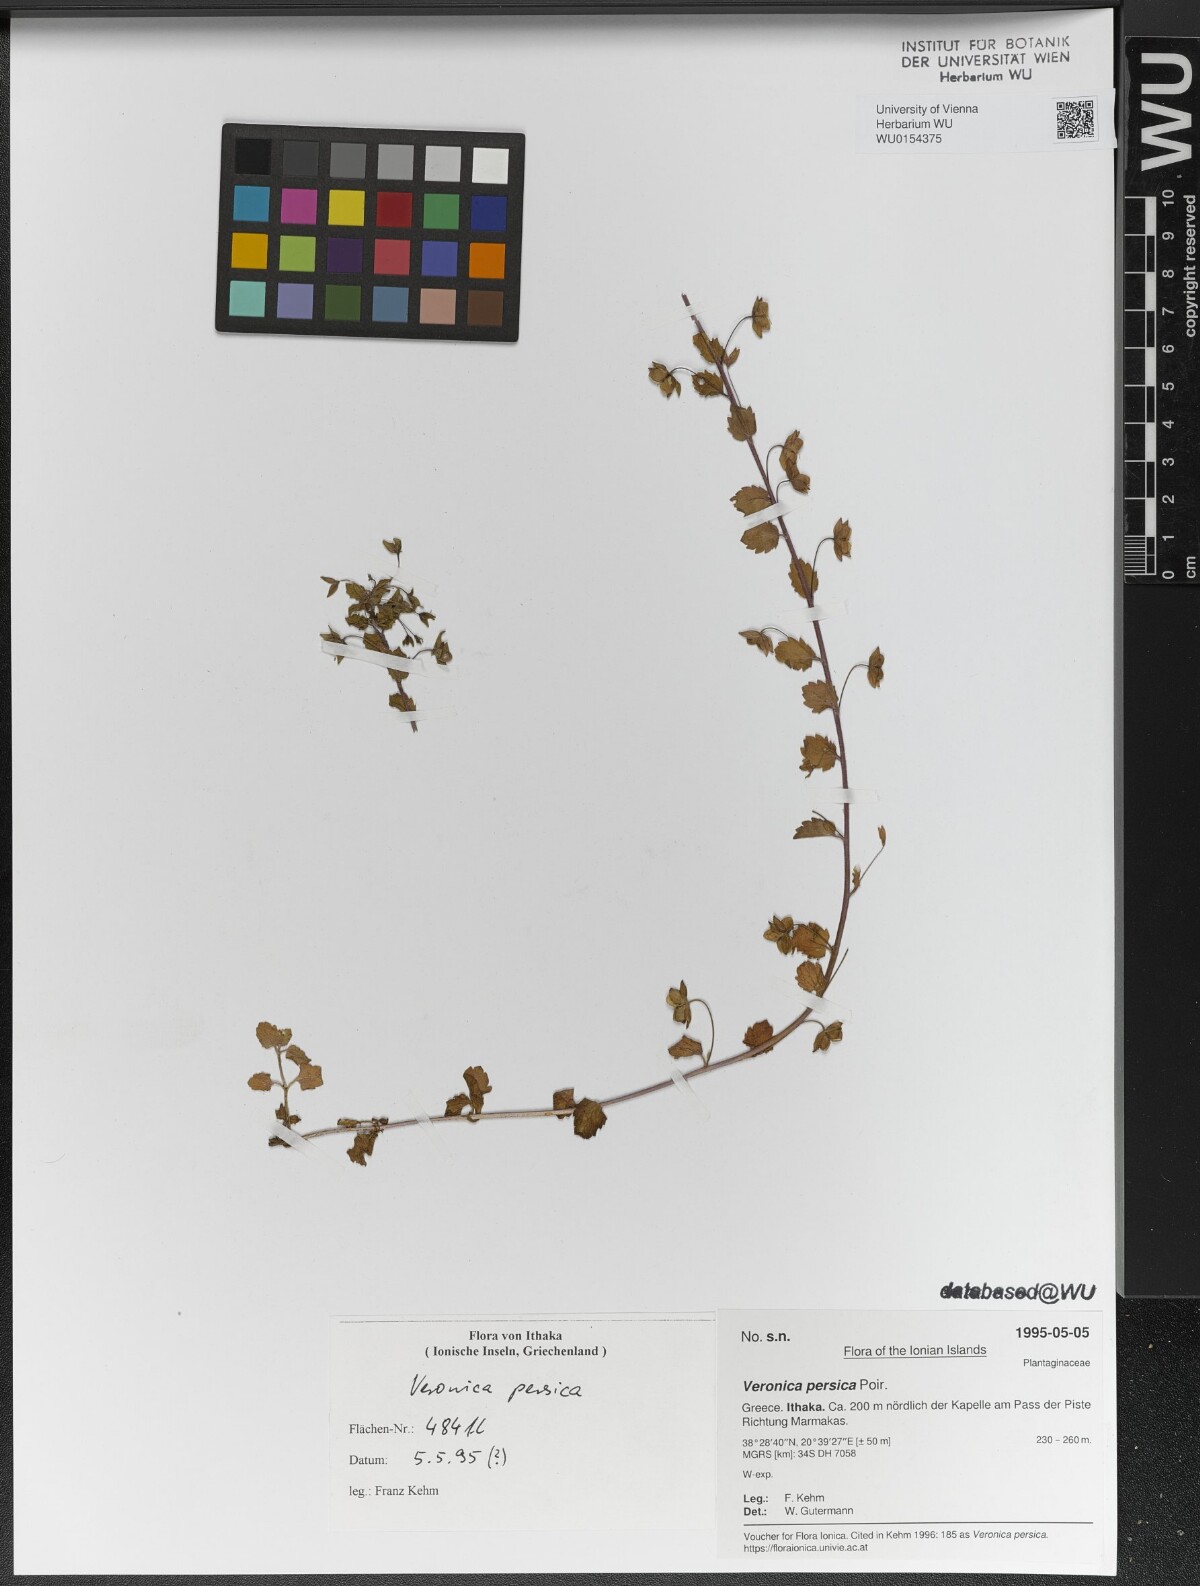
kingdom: Plantae
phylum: Tracheophyta
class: Magnoliopsida
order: Lamiales
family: Plantaginaceae
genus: Veronica
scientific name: Veronica persica
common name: Common field-speedwell
